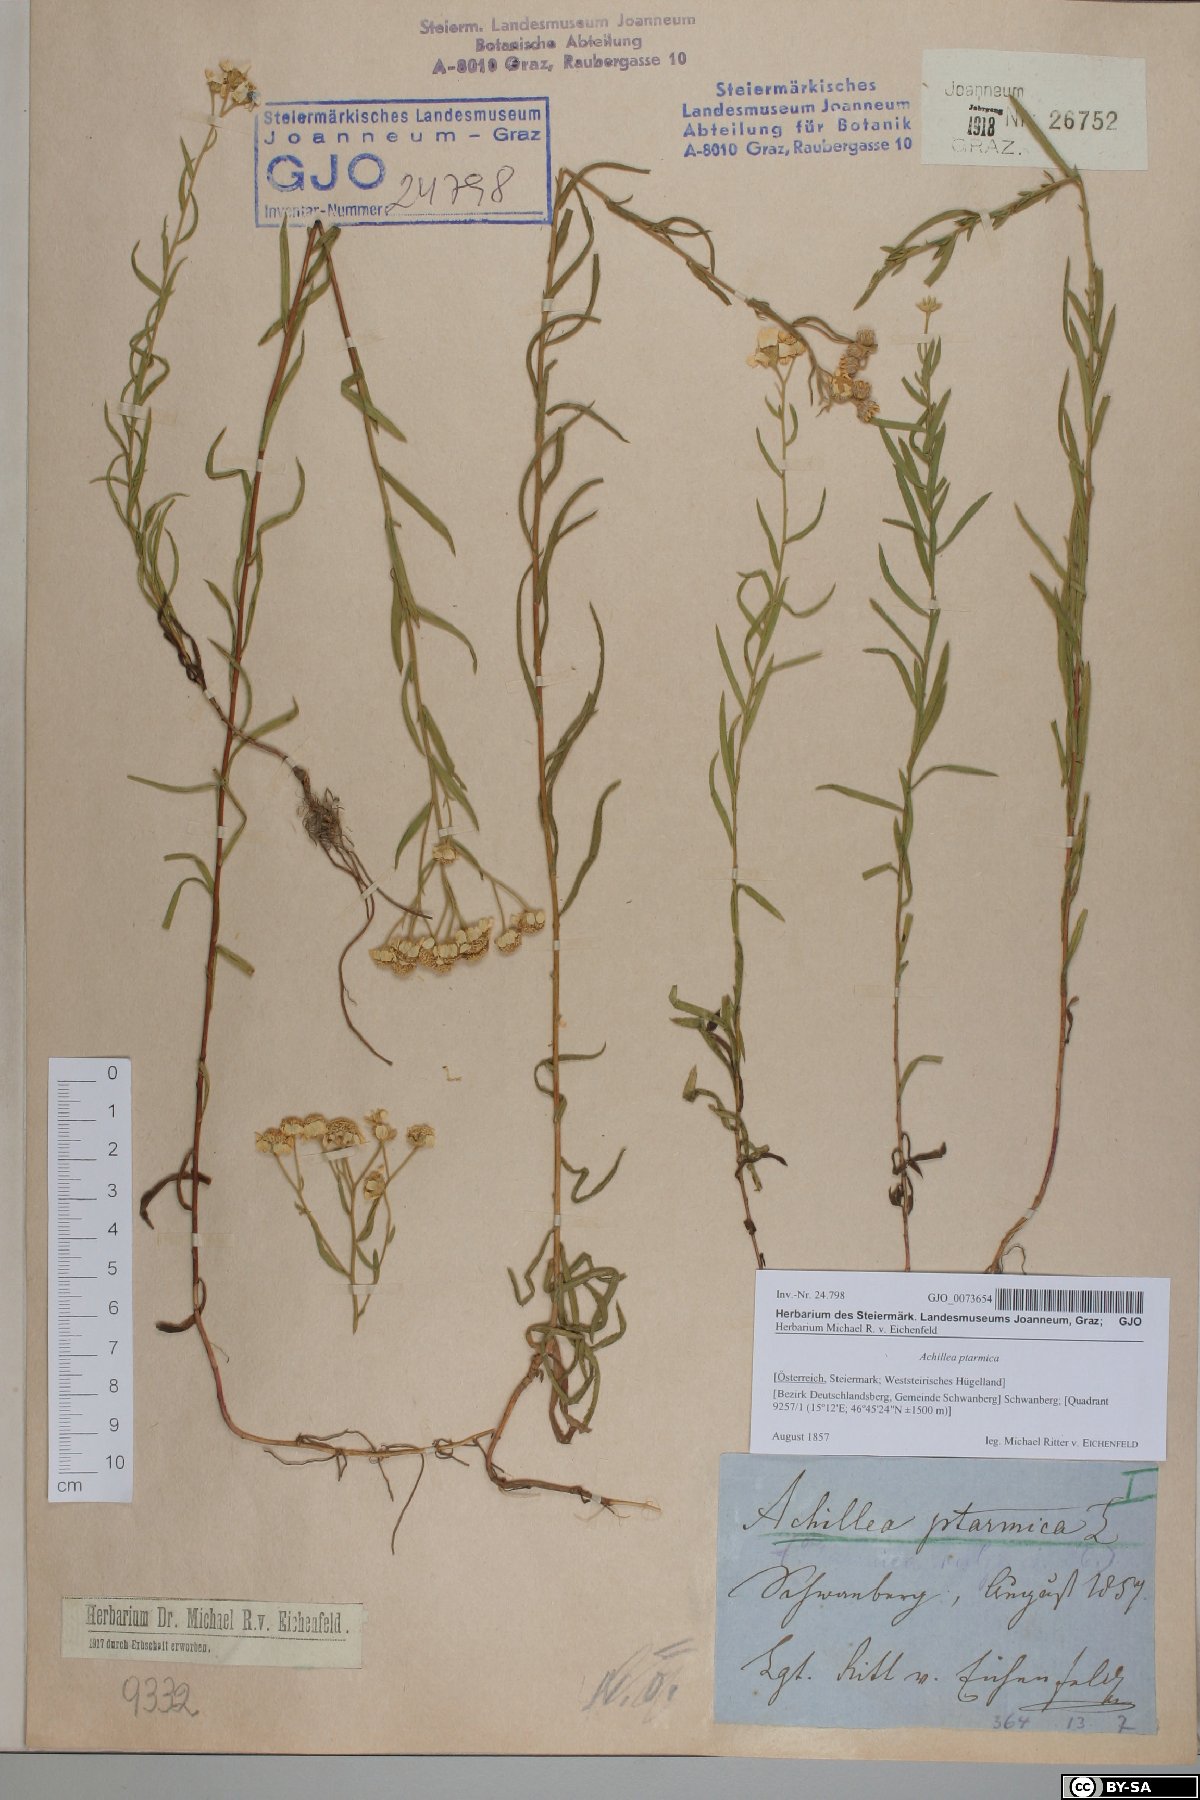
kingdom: Plantae
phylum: Tracheophyta
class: Magnoliopsida
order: Asterales
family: Asteraceae
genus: Achillea
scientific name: Achillea ptarmica
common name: Sneezeweed
